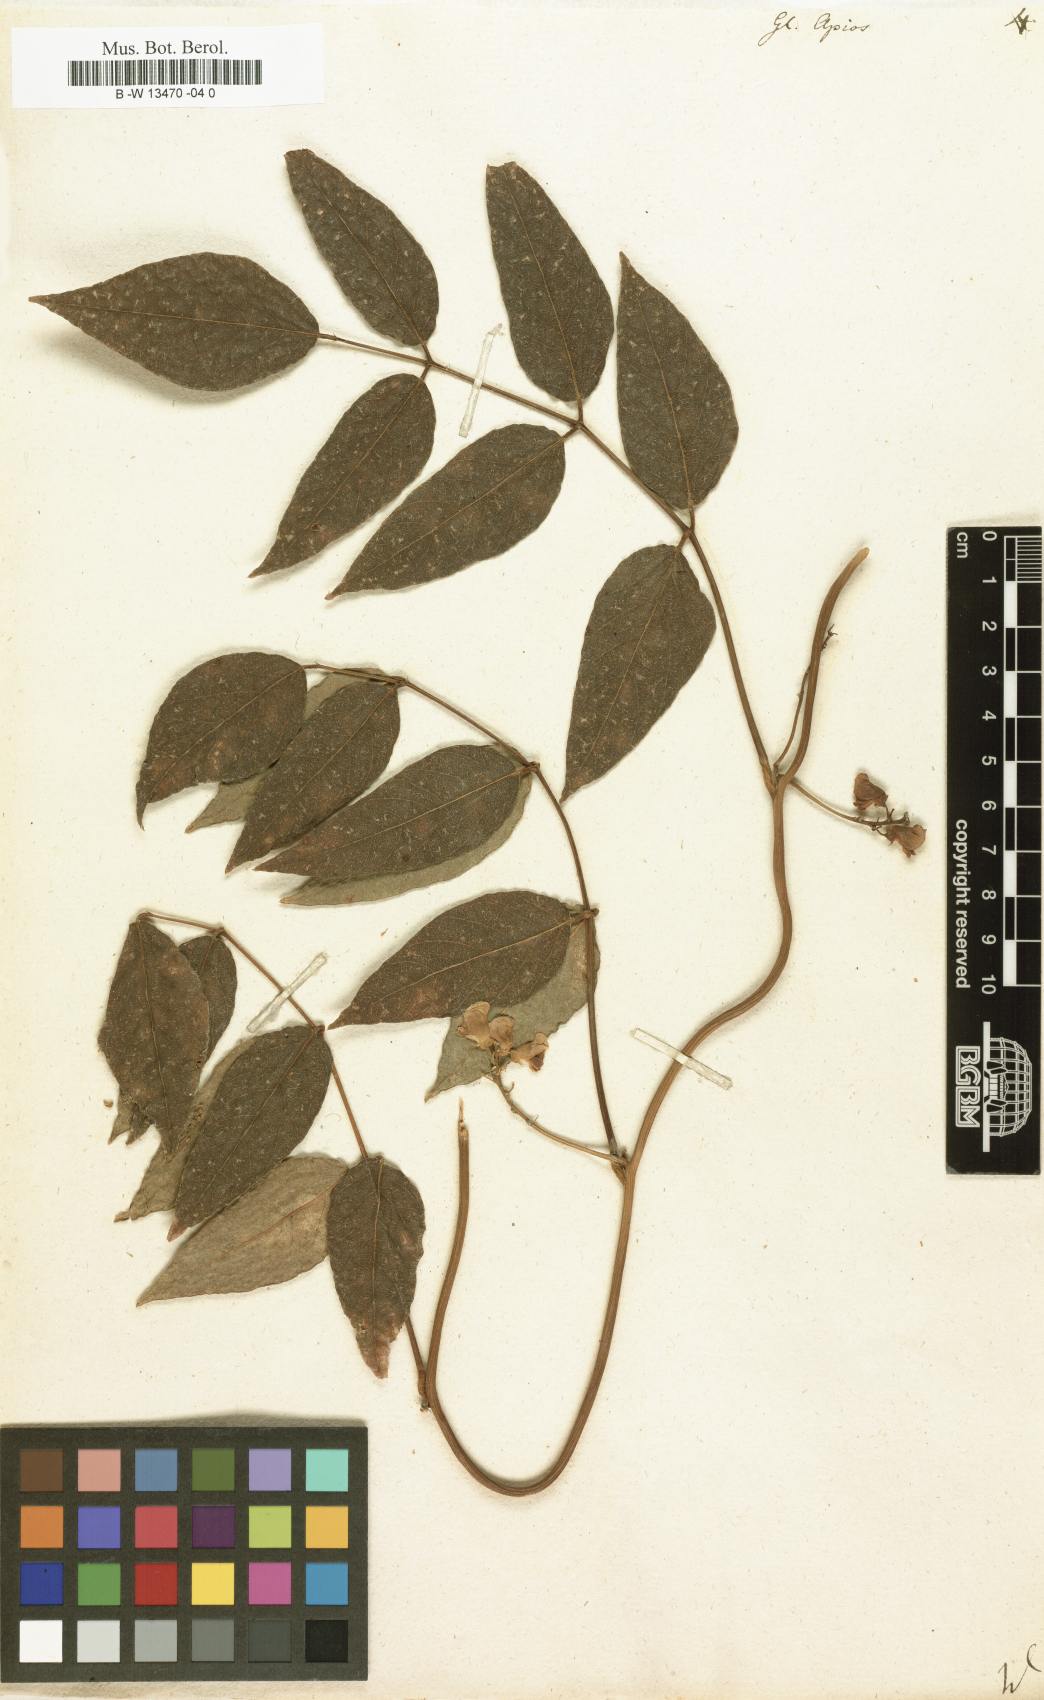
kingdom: Plantae
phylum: Tracheophyta
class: Magnoliopsida
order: Fabales
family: Fabaceae
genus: Apios
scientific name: Apios americana
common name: American potato-bean
